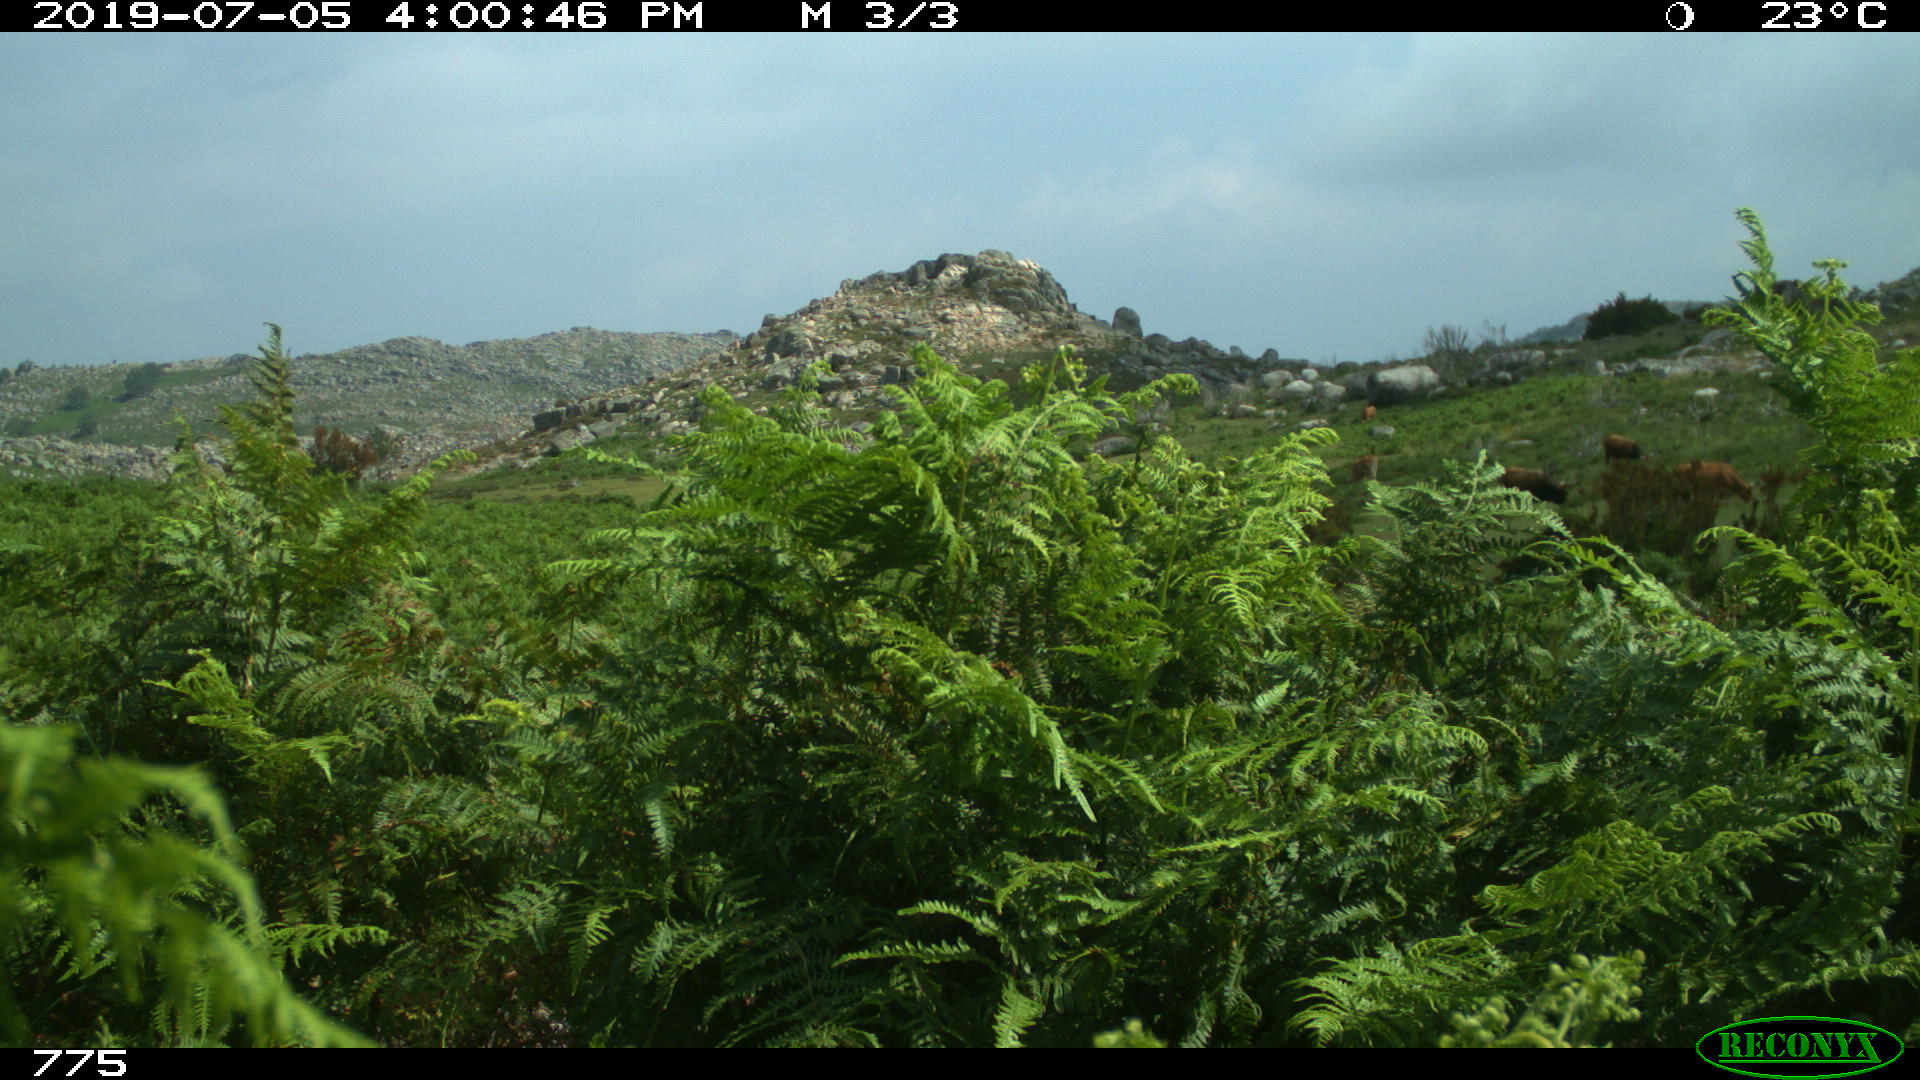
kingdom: Animalia
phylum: Chordata
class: Mammalia
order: Artiodactyla
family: Bovidae
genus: Bos
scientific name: Bos taurus
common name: Domesticated cattle
